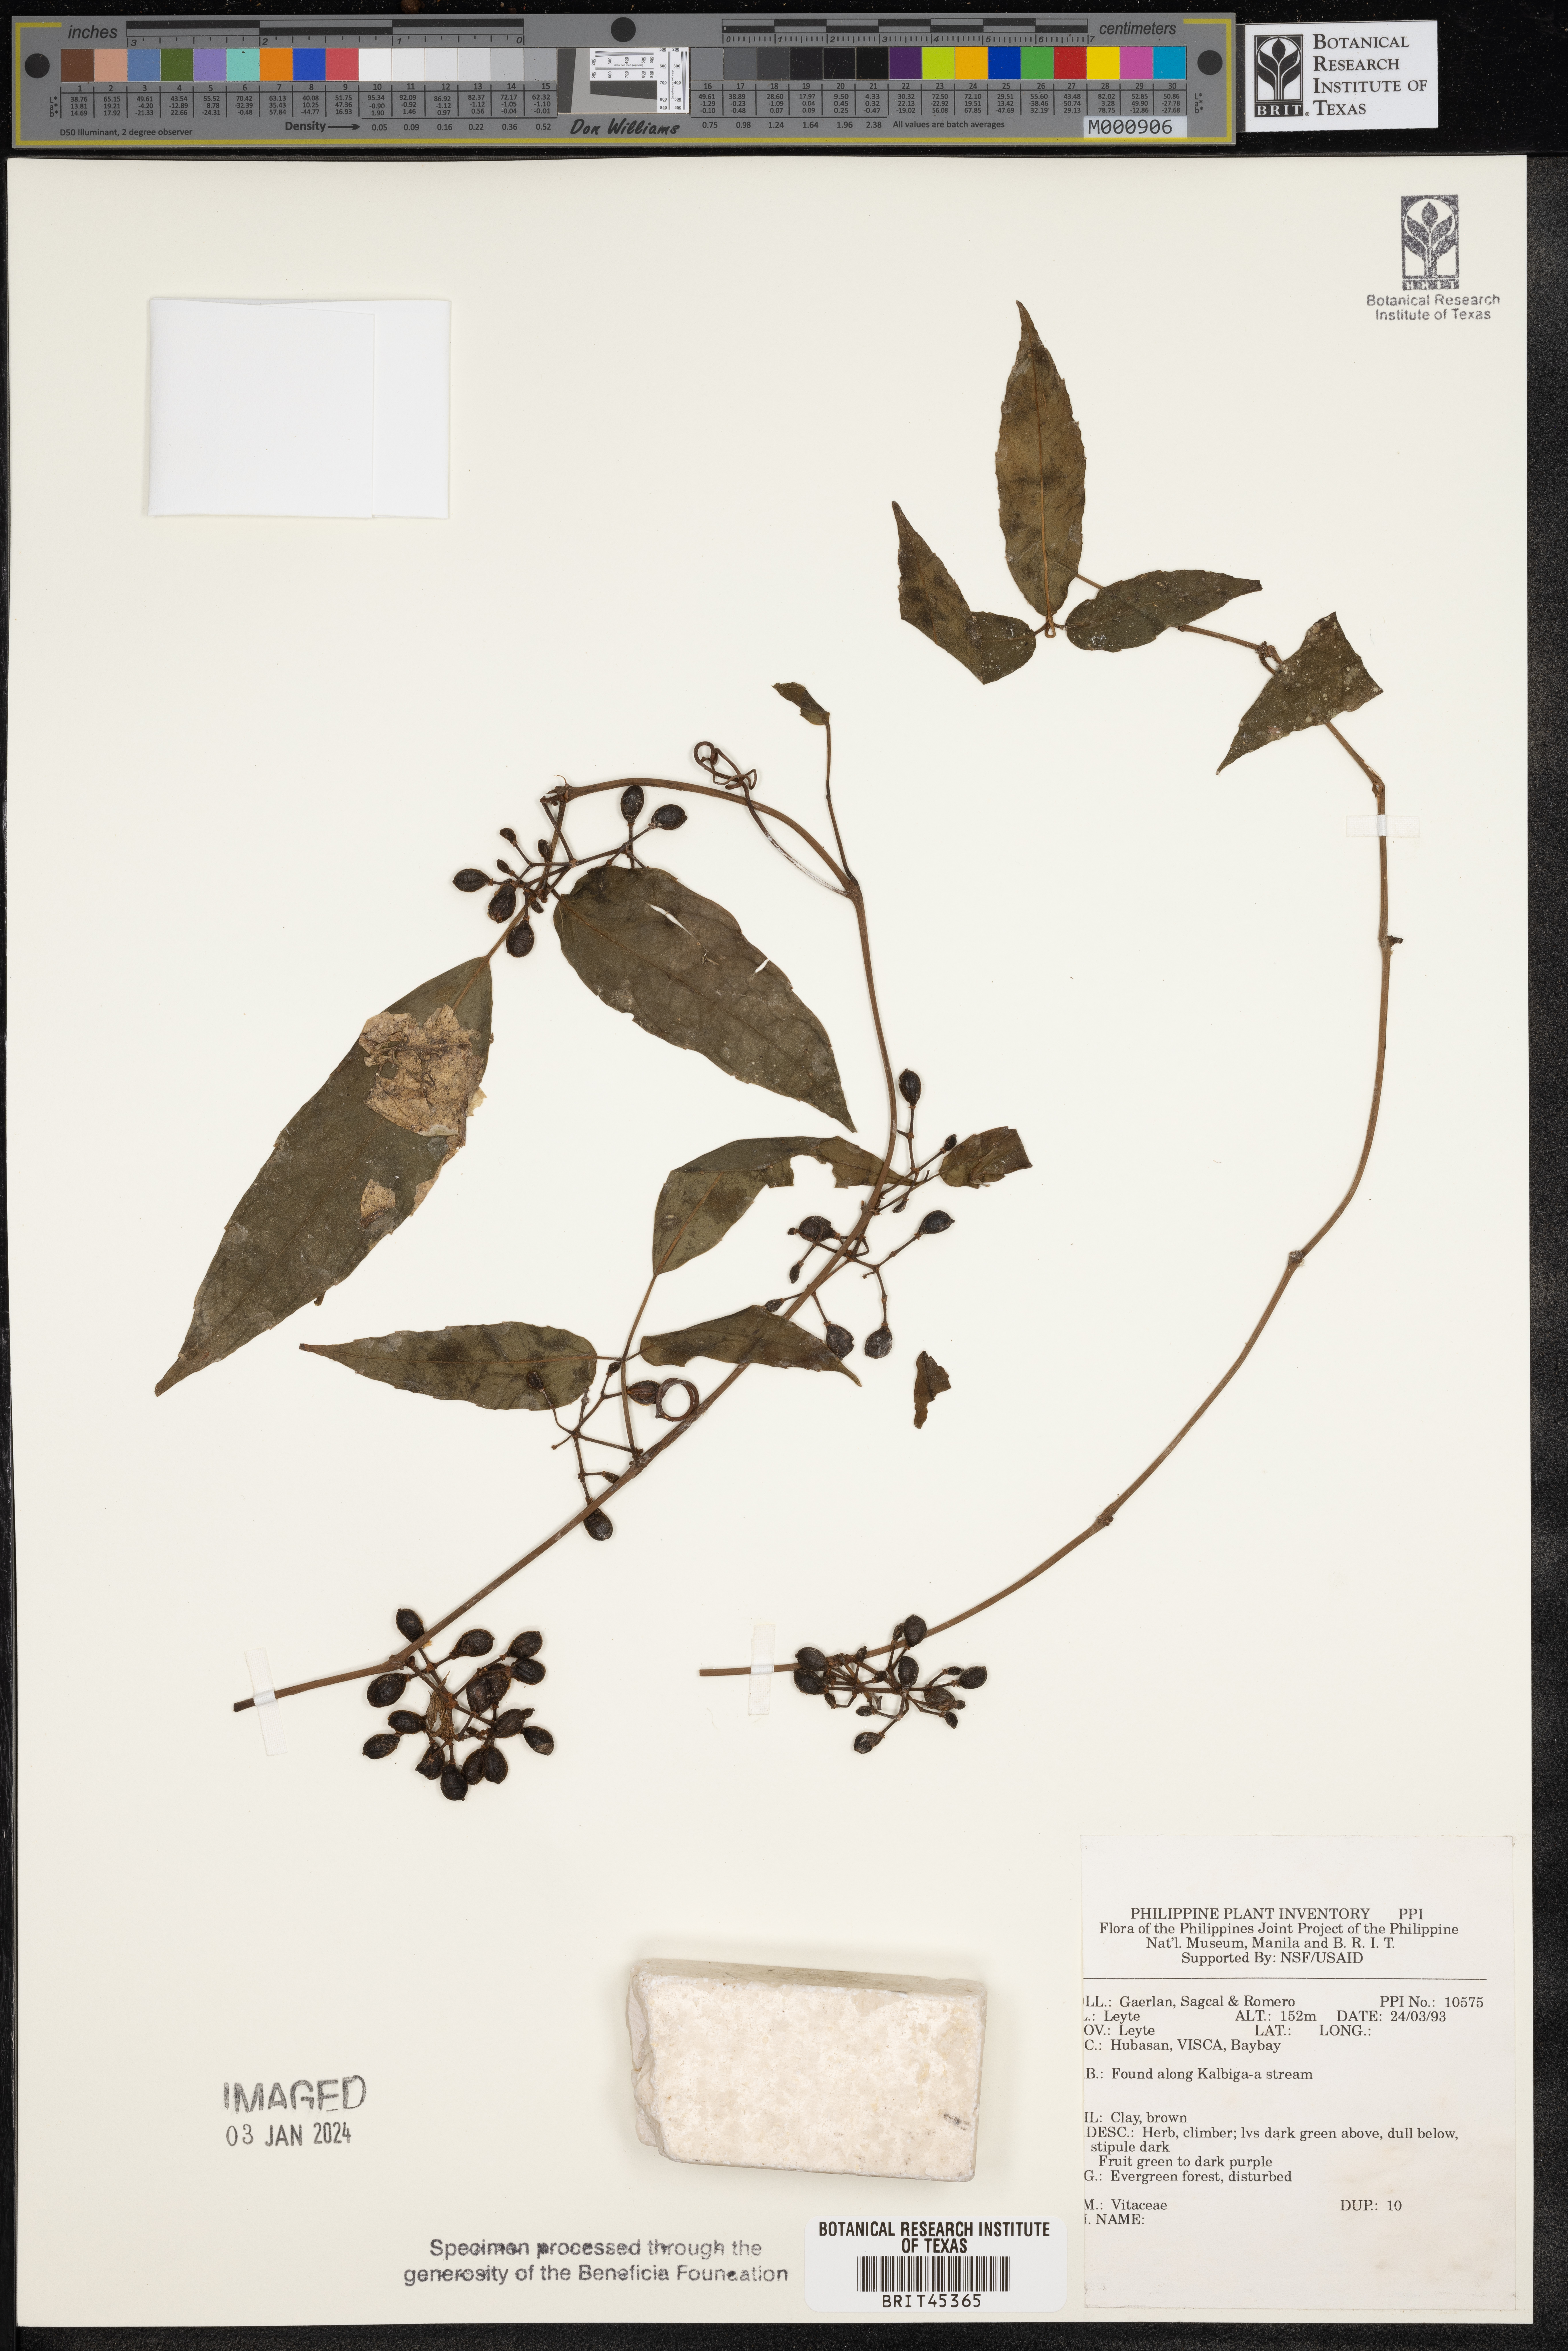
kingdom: Plantae
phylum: Tracheophyta
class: Magnoliopsida
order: Vitales
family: Vitaceae
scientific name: Vitaceae
